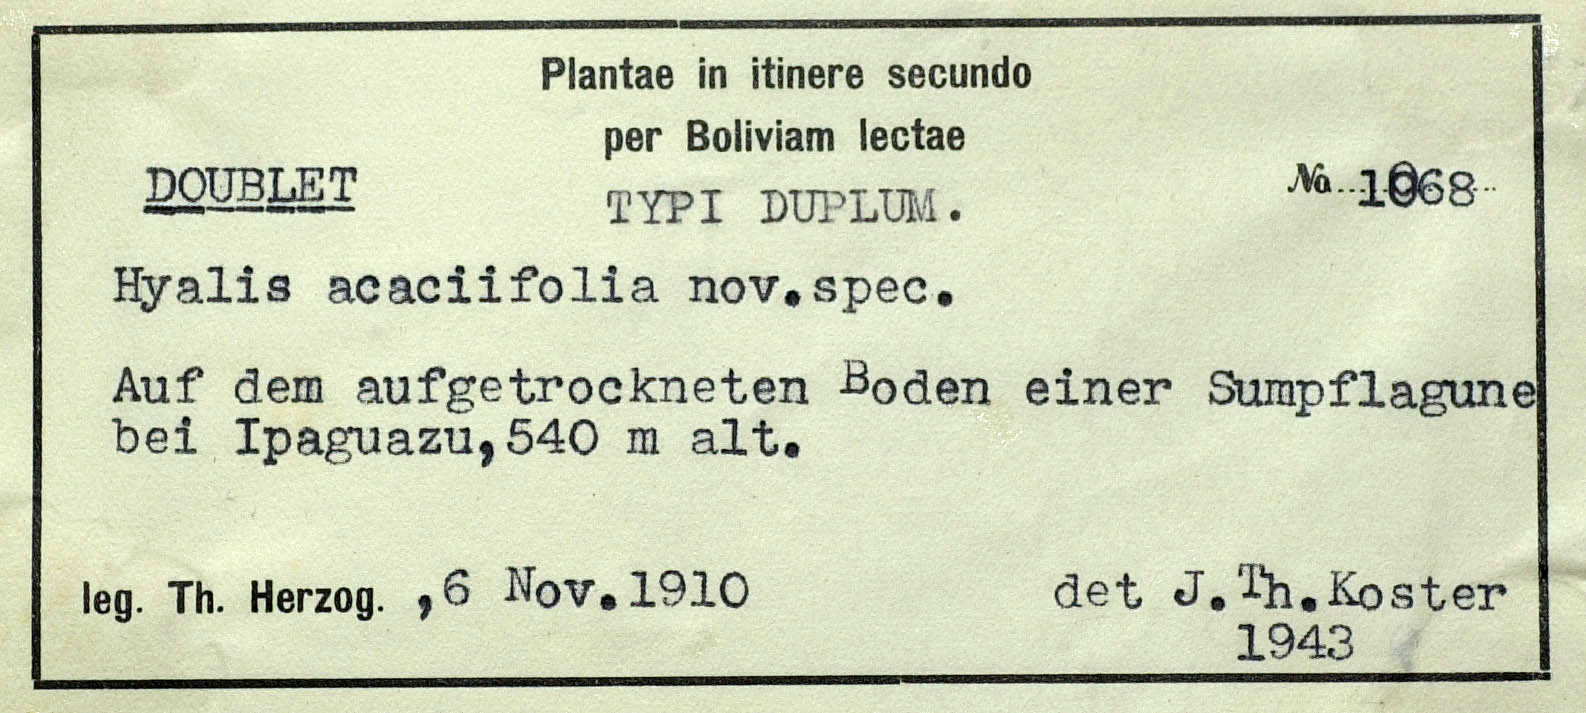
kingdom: Plantae
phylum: Tracheophyta
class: Magnoliopsida
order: Asterales
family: Asteraceae
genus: Hyalis
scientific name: Hyalis lancifolia
